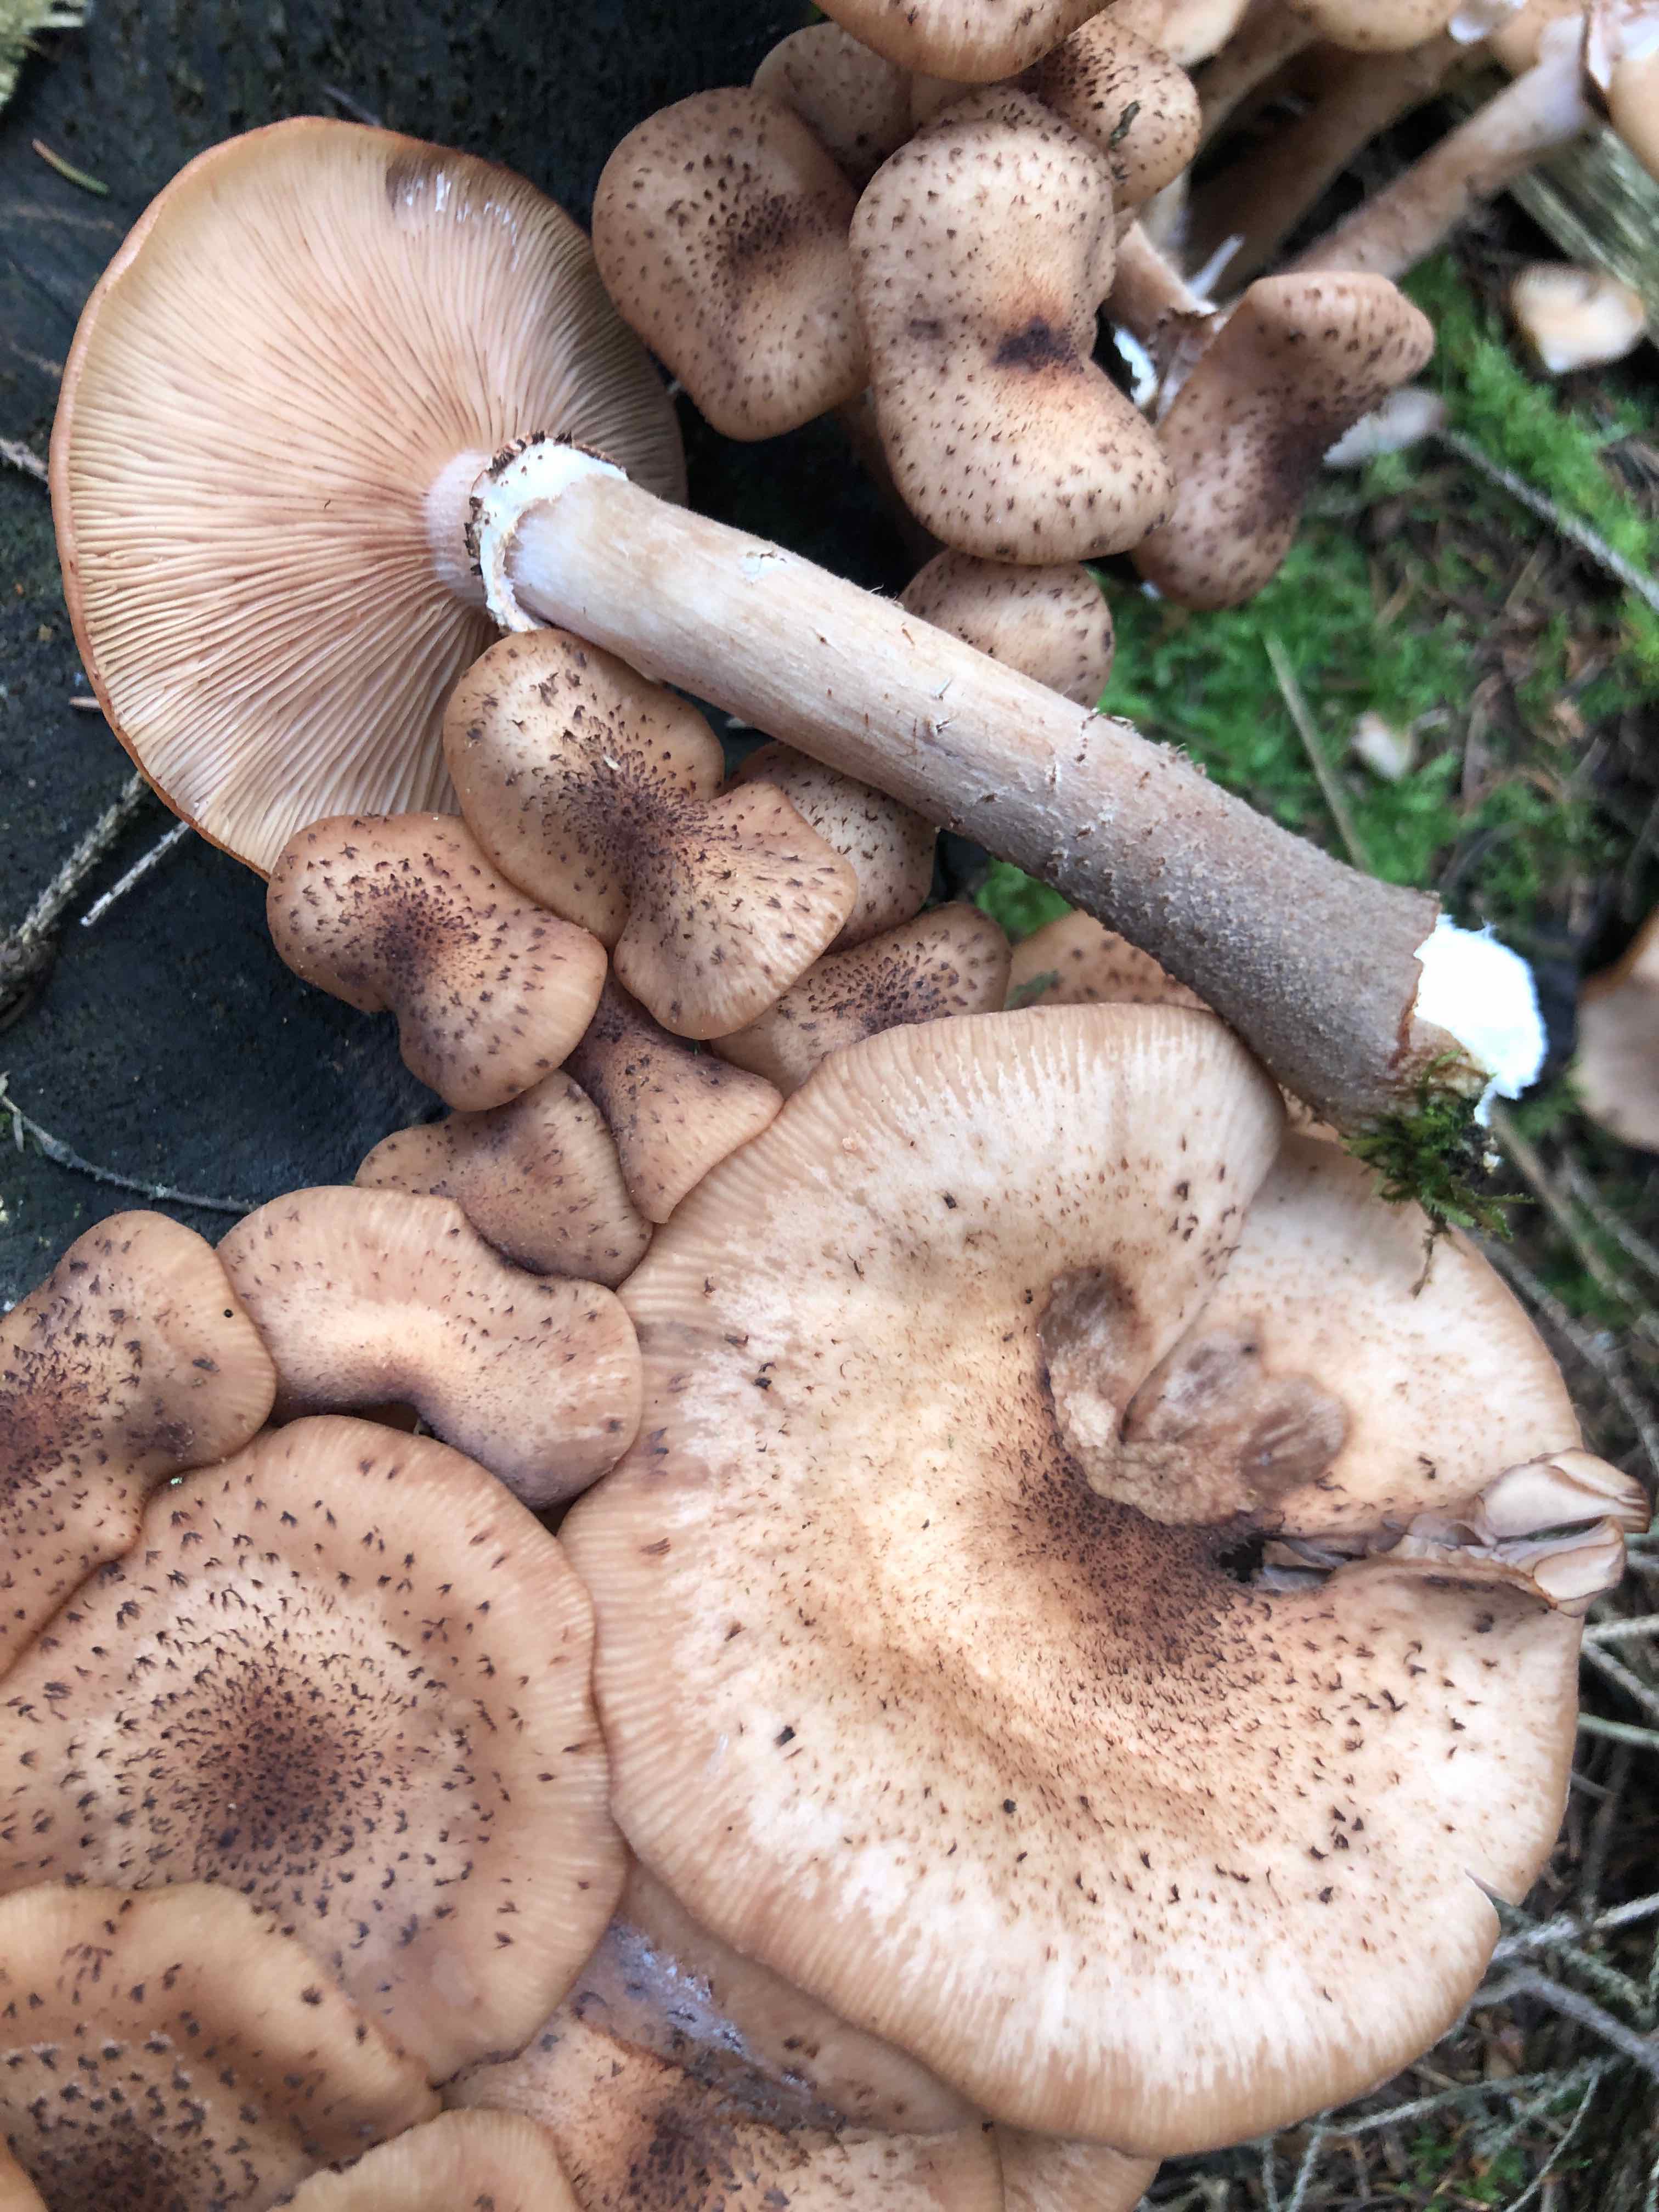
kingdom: Fungi
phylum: Basidiomycota
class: Agaricomycetes
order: Agaricales
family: Physalacriaceae
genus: Armillaria
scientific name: Armillaria ostoyae
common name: mørk honningsvamp
